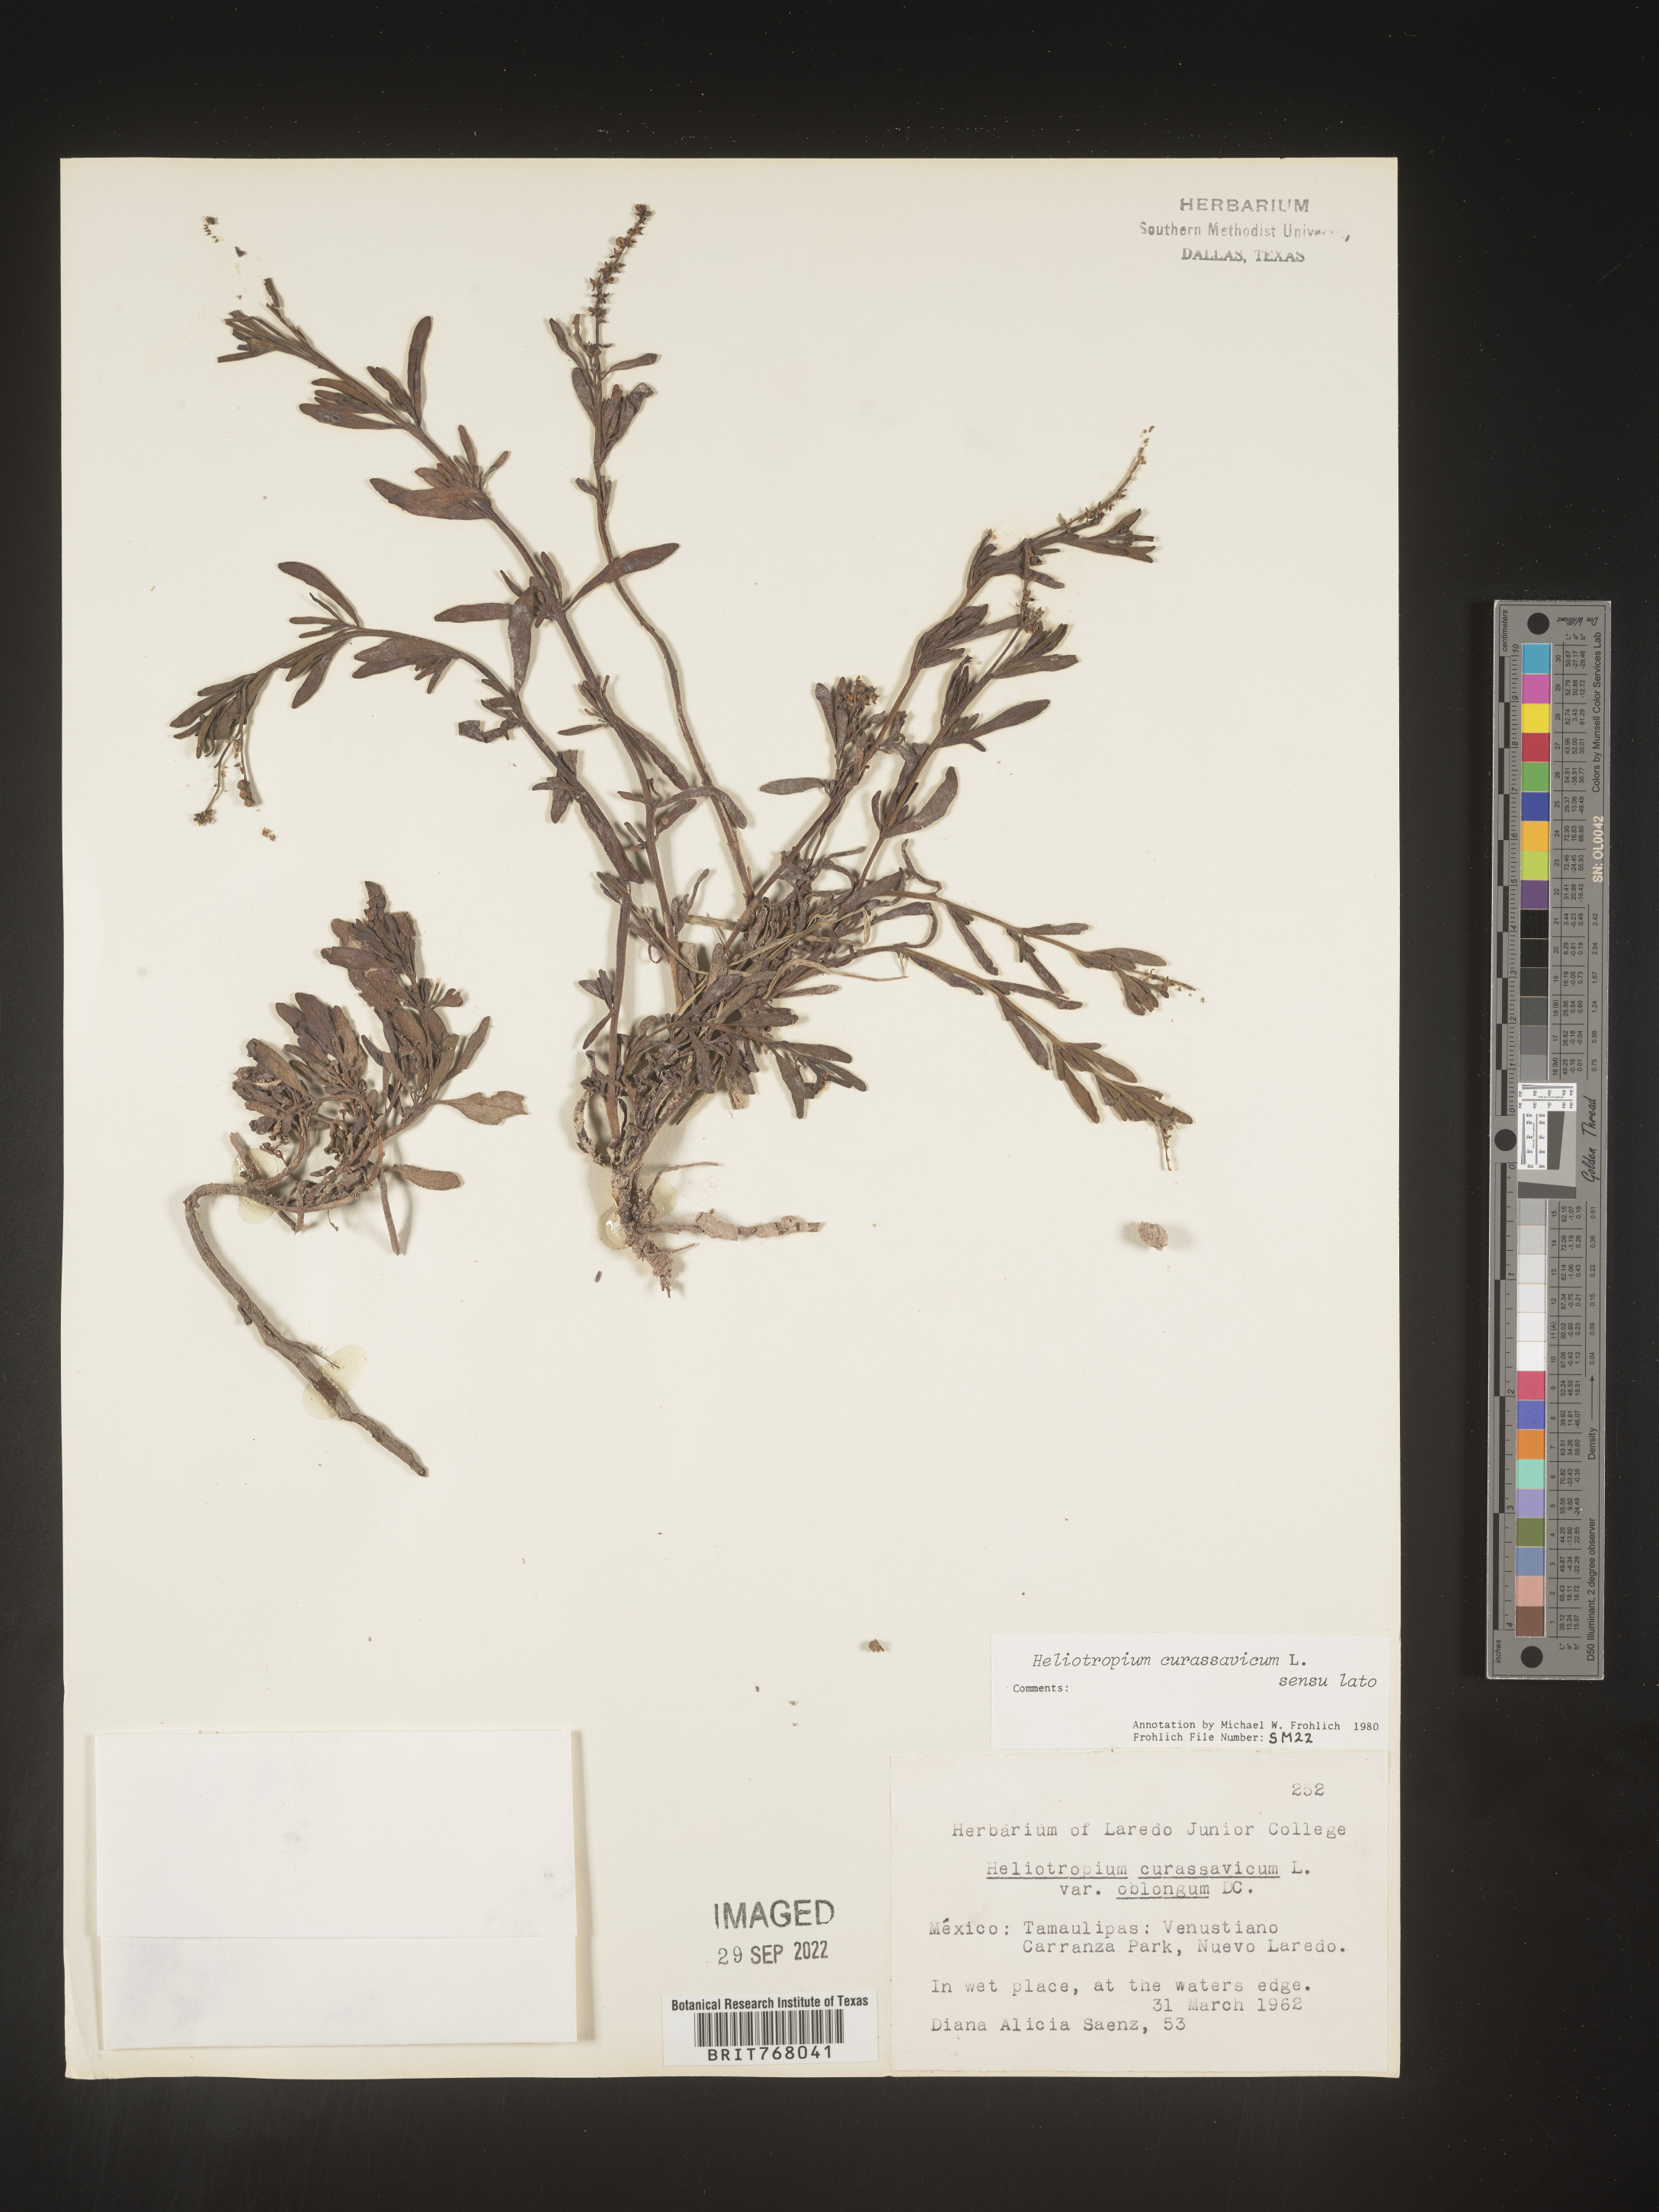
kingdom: Plantae
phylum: Tracheophyta
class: Magnoliopsida
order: Boraginales
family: Heliotropiaceae
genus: Heliotropium
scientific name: Heliotropium curassavicum
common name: Seaside heliotrope
